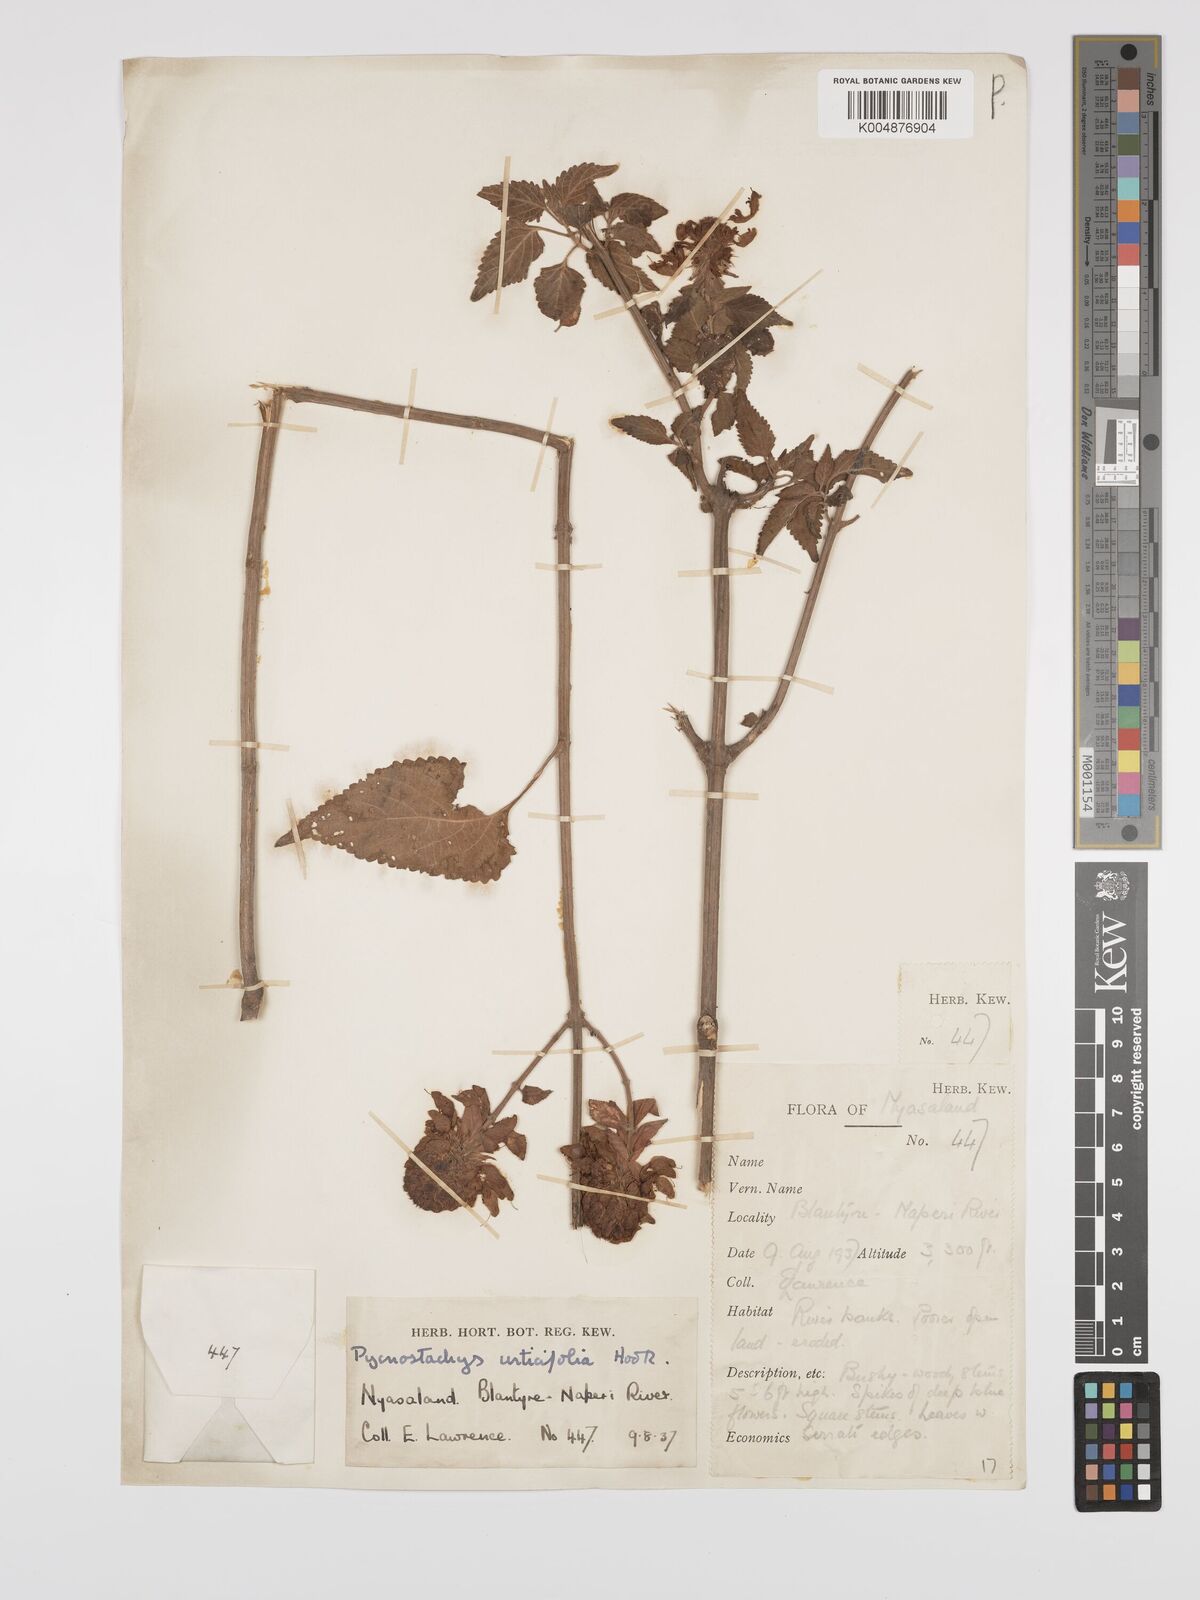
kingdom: Plantae
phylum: Tracheophyta
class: Magnoliopsida
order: Lamiales
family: Lamiaceae
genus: Coleus
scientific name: Coleus livingstonei
